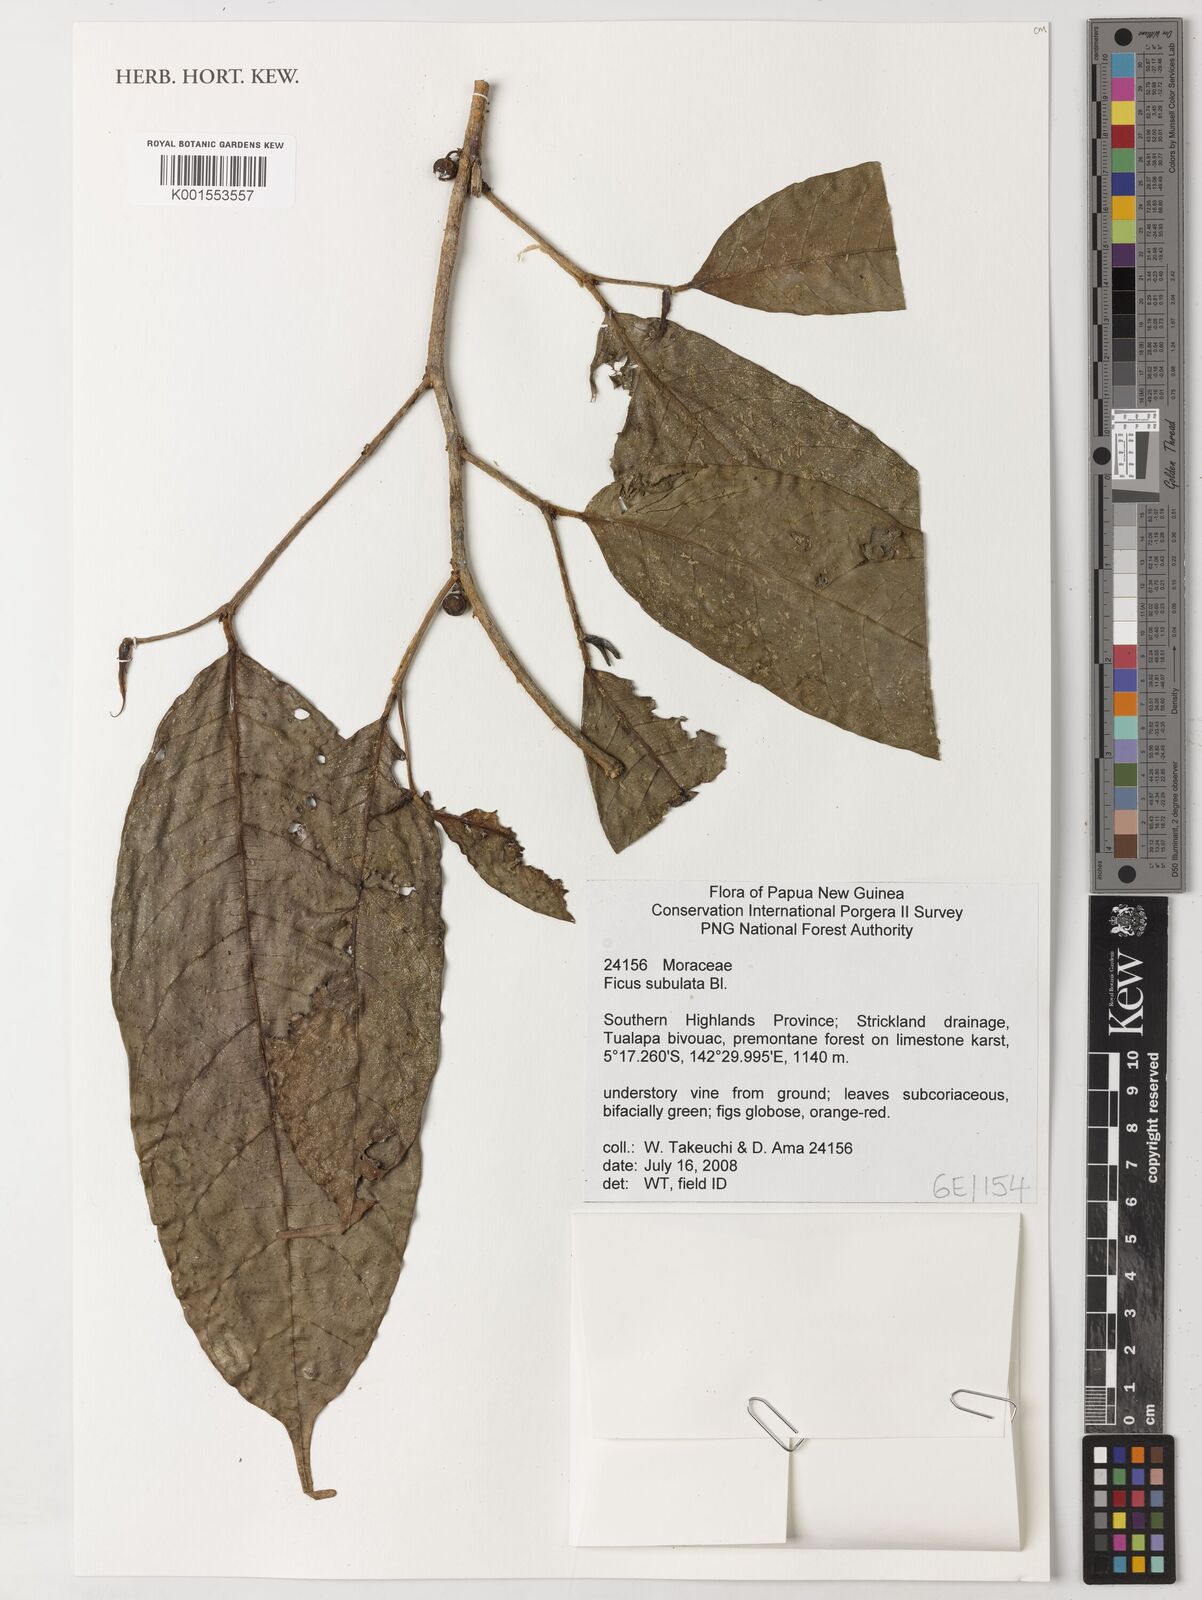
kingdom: Plantae
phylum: Tracheophyta
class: Magnoliopsida
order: Rosales
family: Moraceae
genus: Ficus
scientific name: Ficus subulata
